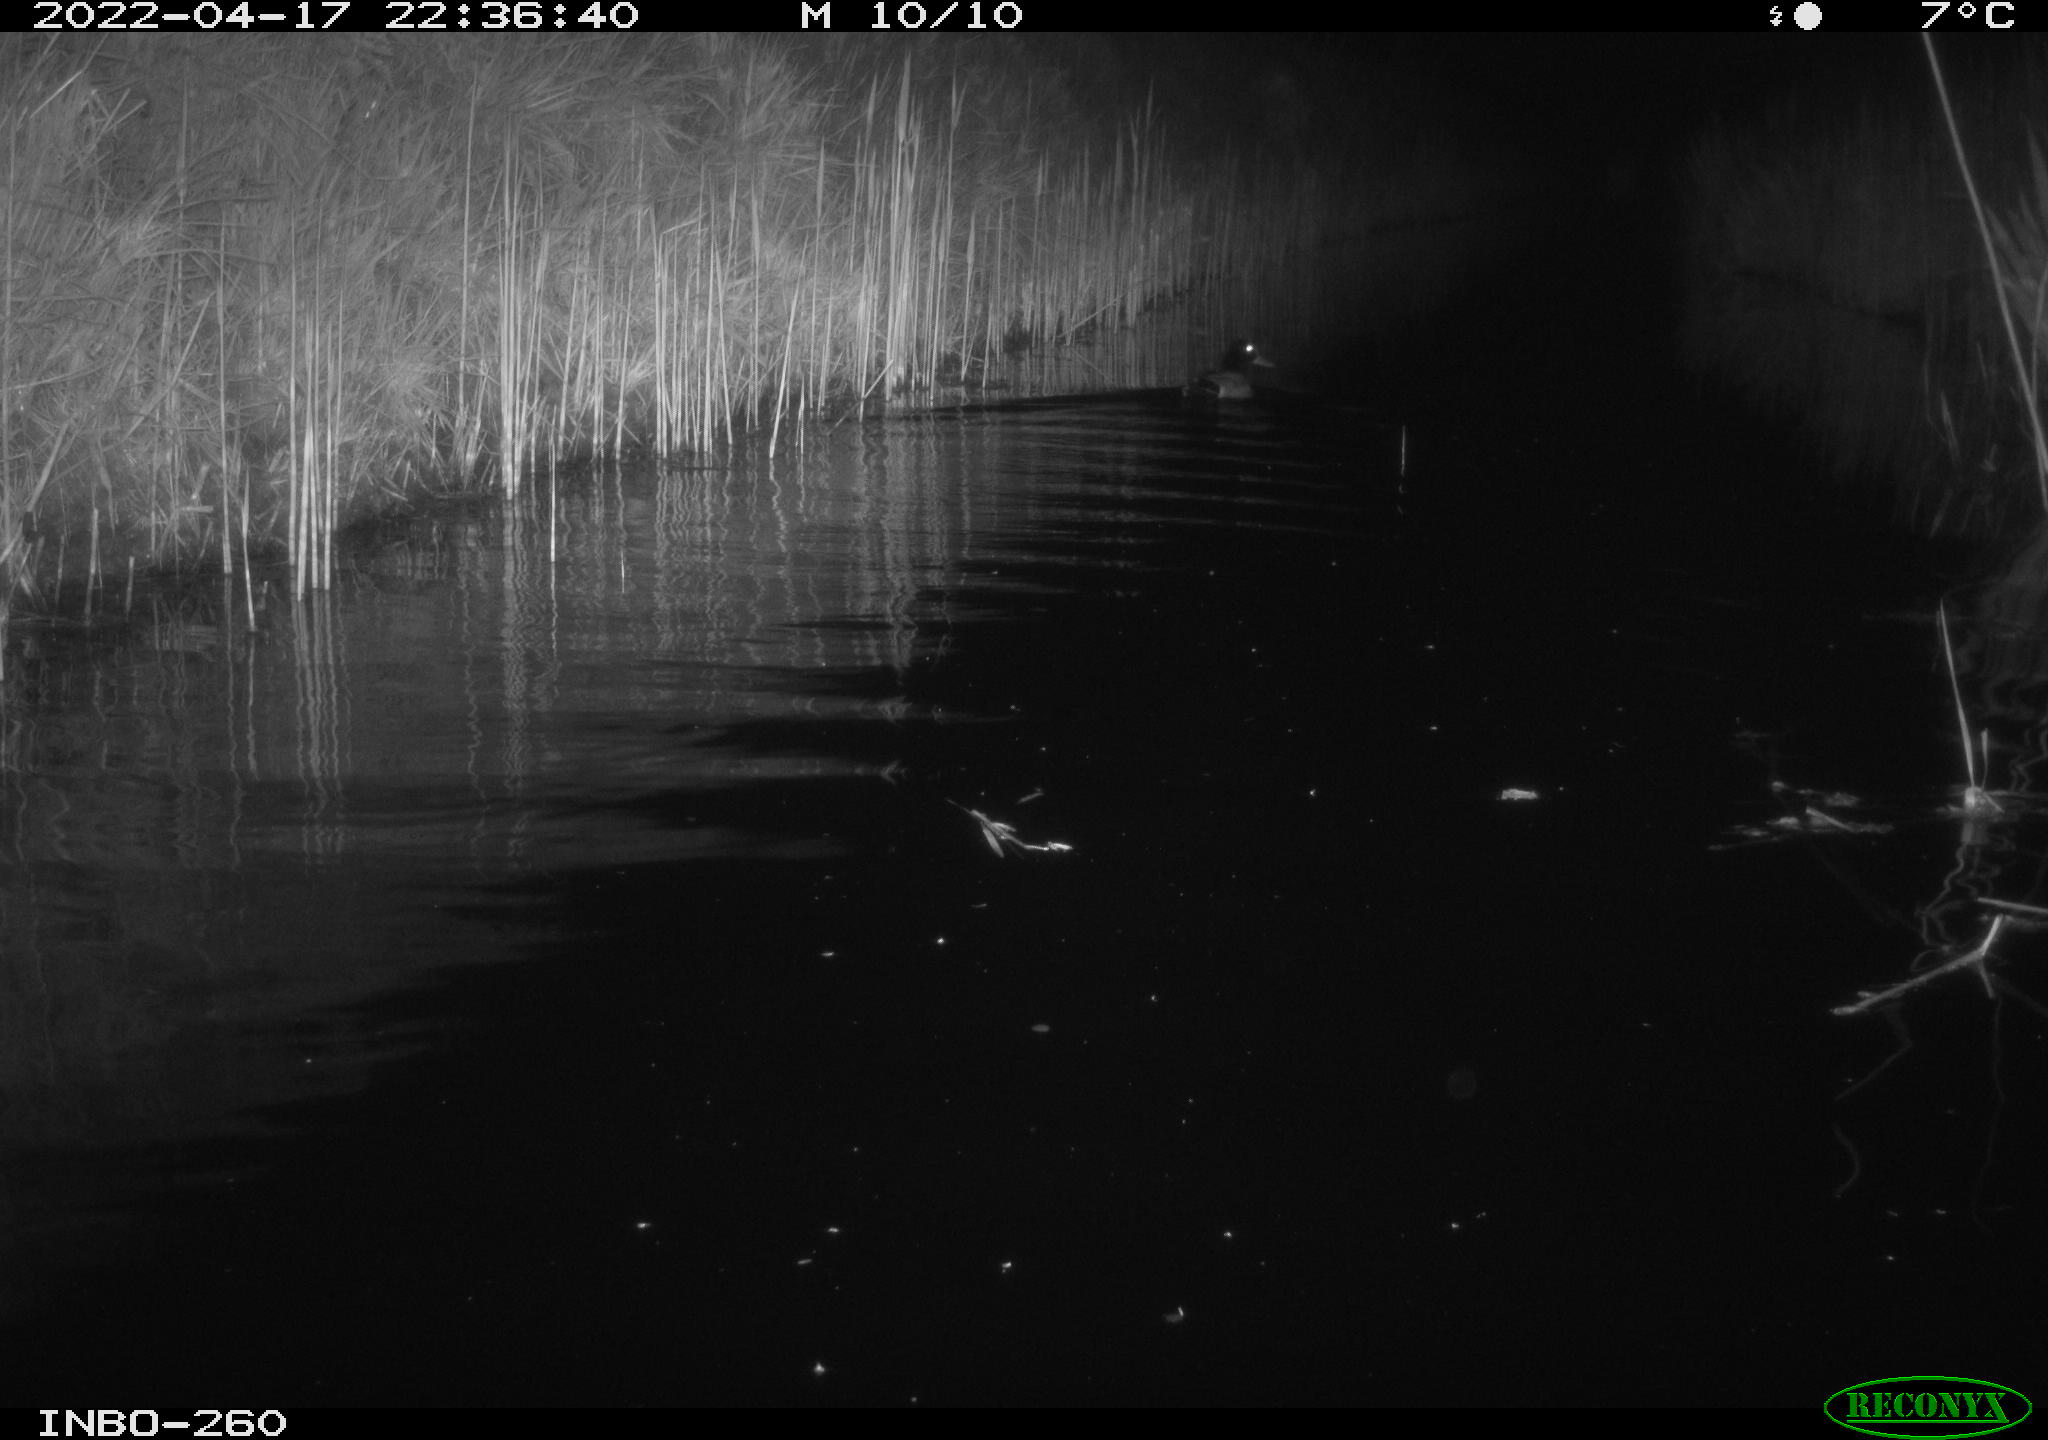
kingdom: Animalia
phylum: Chordata
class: Aves
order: Anseriformes
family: Anatidae
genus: Anas
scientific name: Anas platyrhynchos
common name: Mallard
